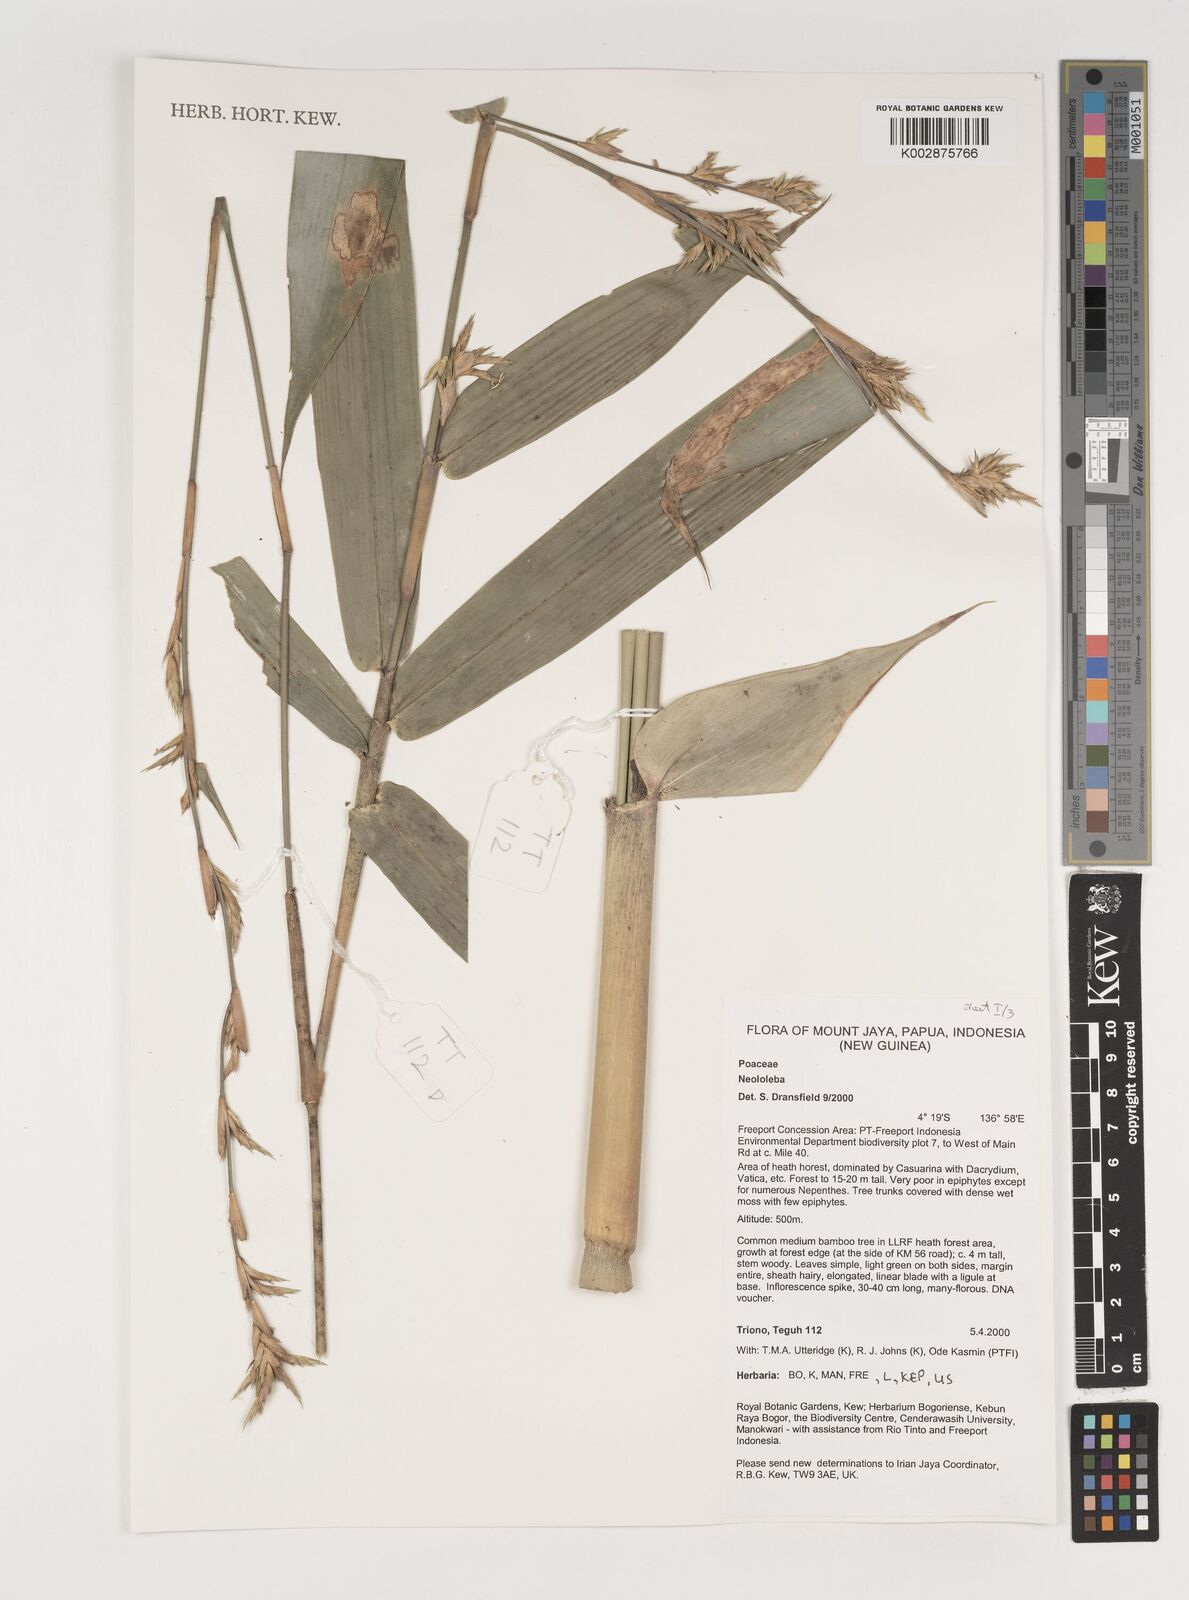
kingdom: Plantae
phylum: Tracheophyta
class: Liliopsida
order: Poales
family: Poaceae
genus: Neololeba
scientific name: Neololeba
